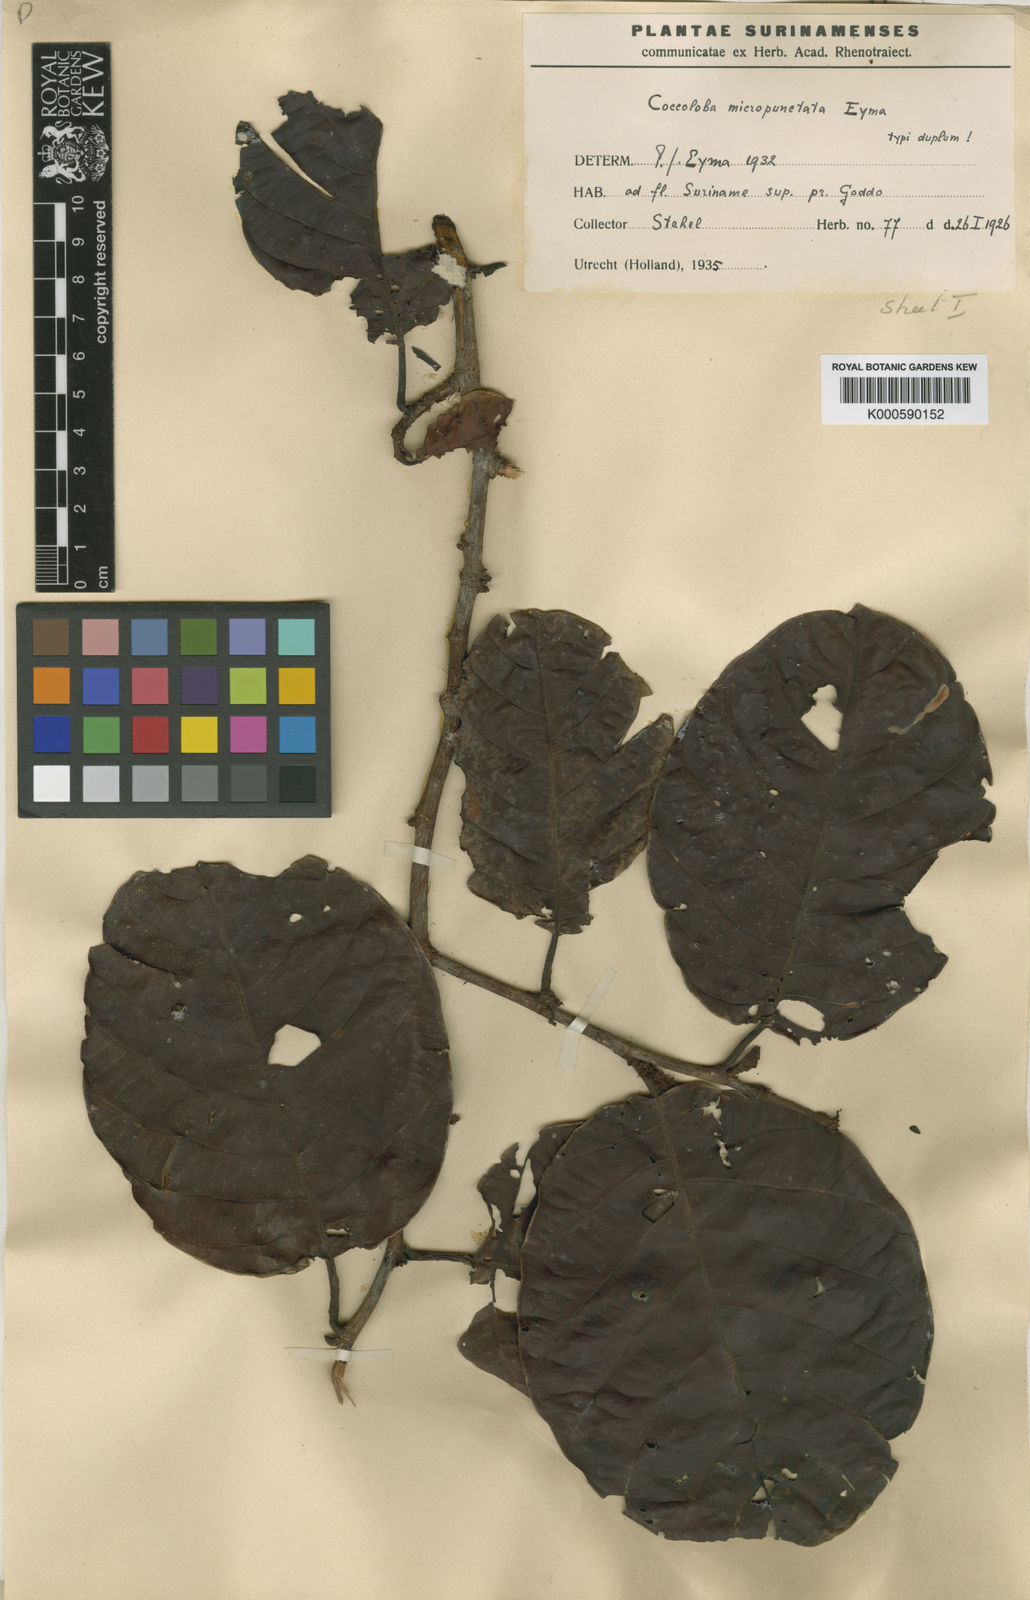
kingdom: Plantae
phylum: Tracheophyta
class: Magnoliopsida
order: Caryophyllales
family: Polygonaceae
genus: Coccoloba
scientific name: Coccoloba excelsa
